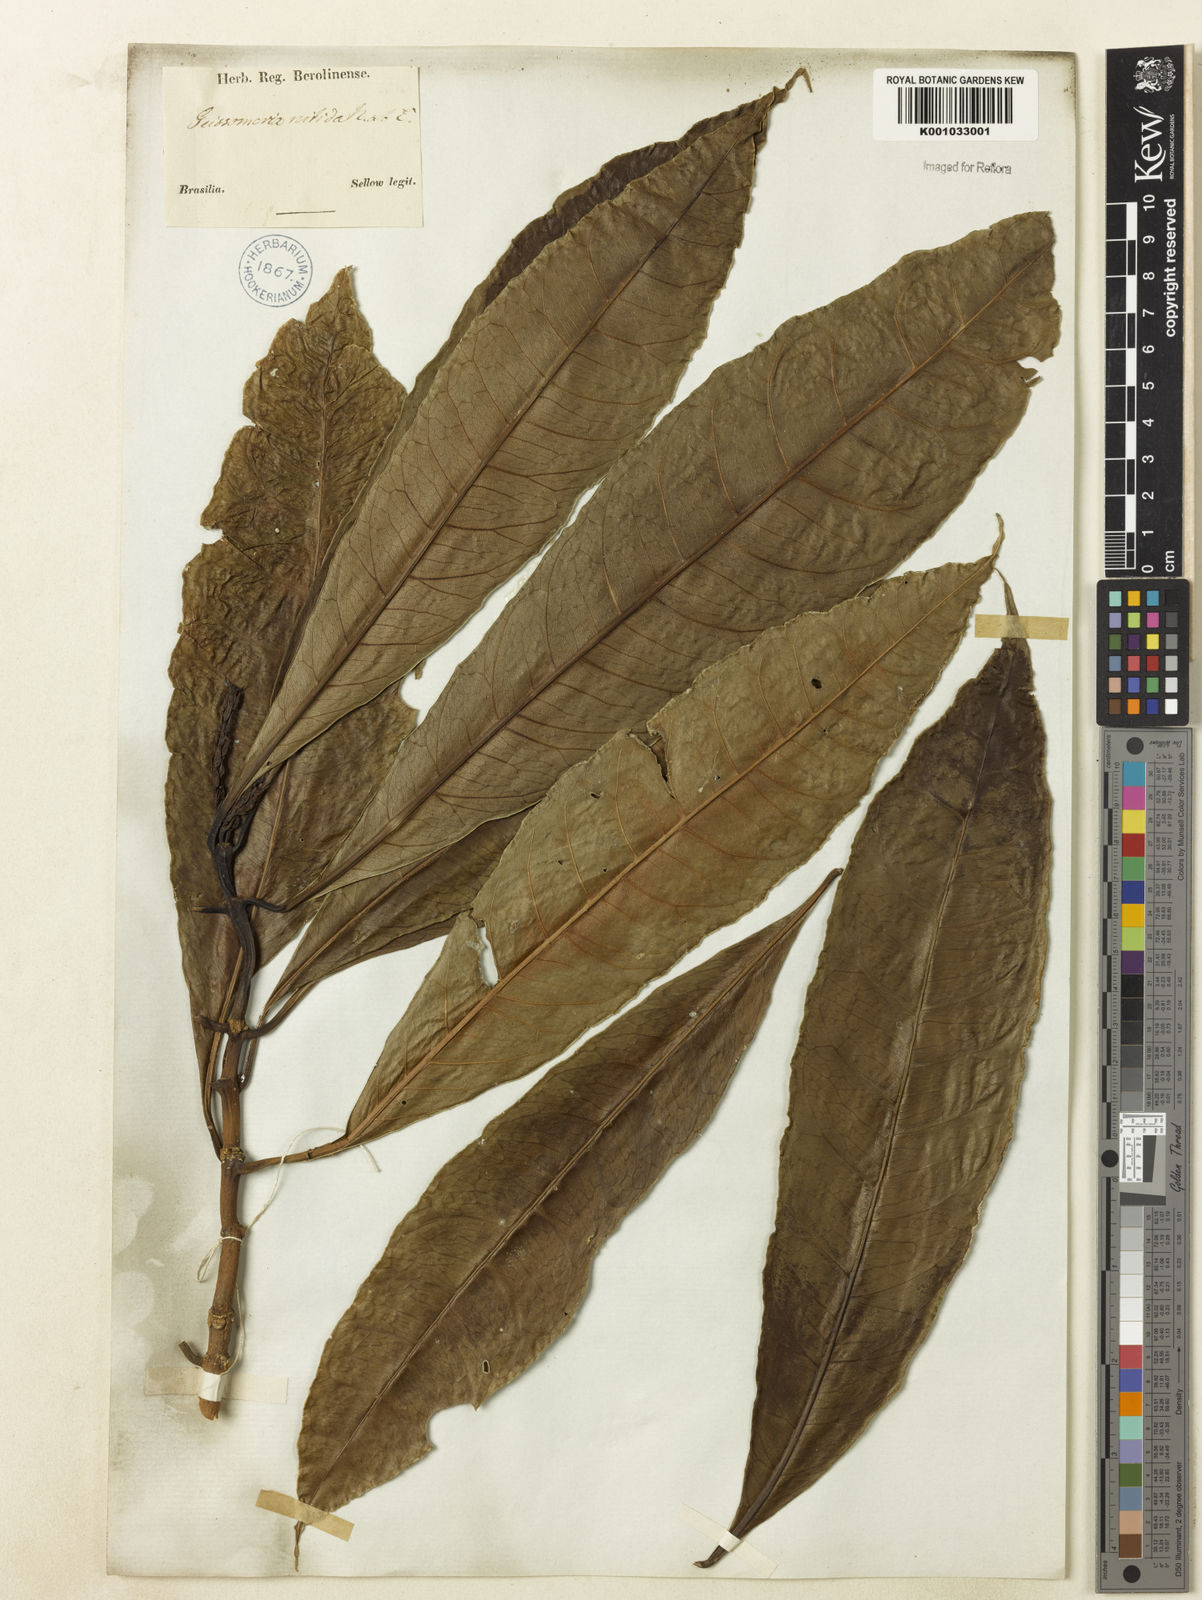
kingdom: Plantae
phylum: Tracheophyta
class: Magnoliopsida
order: Lamiales
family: Acanthaceae
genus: Aphelandra
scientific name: Aphelandra nitida
